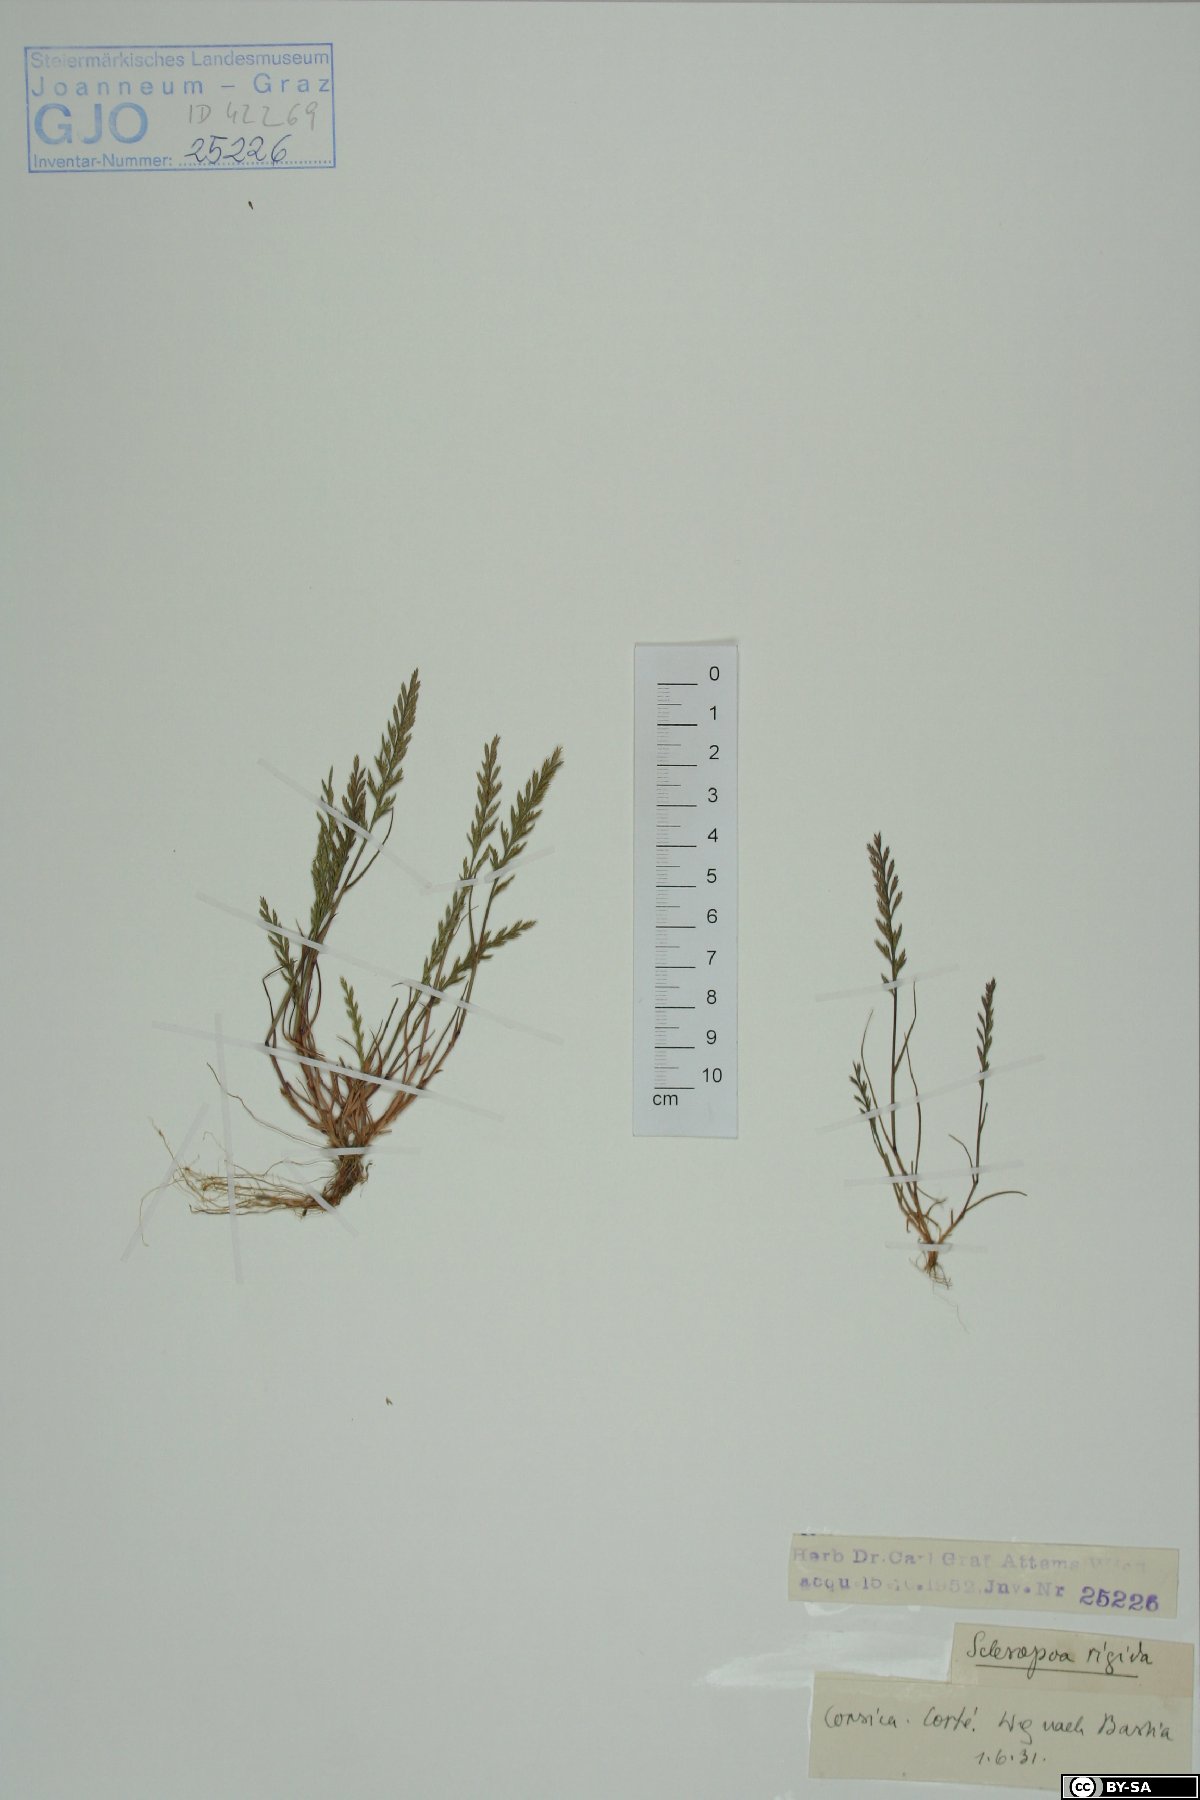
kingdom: Plantae
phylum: Tracheophyta
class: Liliopsida
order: Poales
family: Poaceae
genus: Catapodium
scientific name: Catapodium rigidum
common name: Fern-grass
